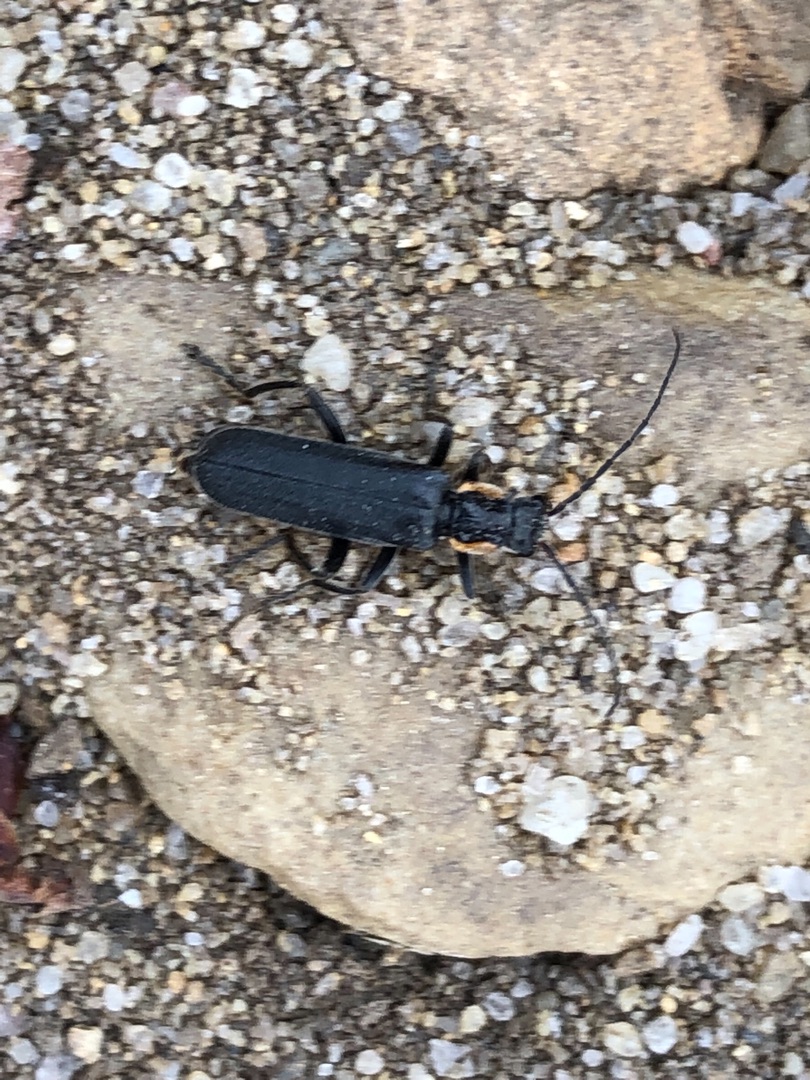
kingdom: Animalia
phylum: Arthropoda
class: Insecta
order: Coleoptera
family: Cantharidae
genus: Cantharis
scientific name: Cantharis obscura
